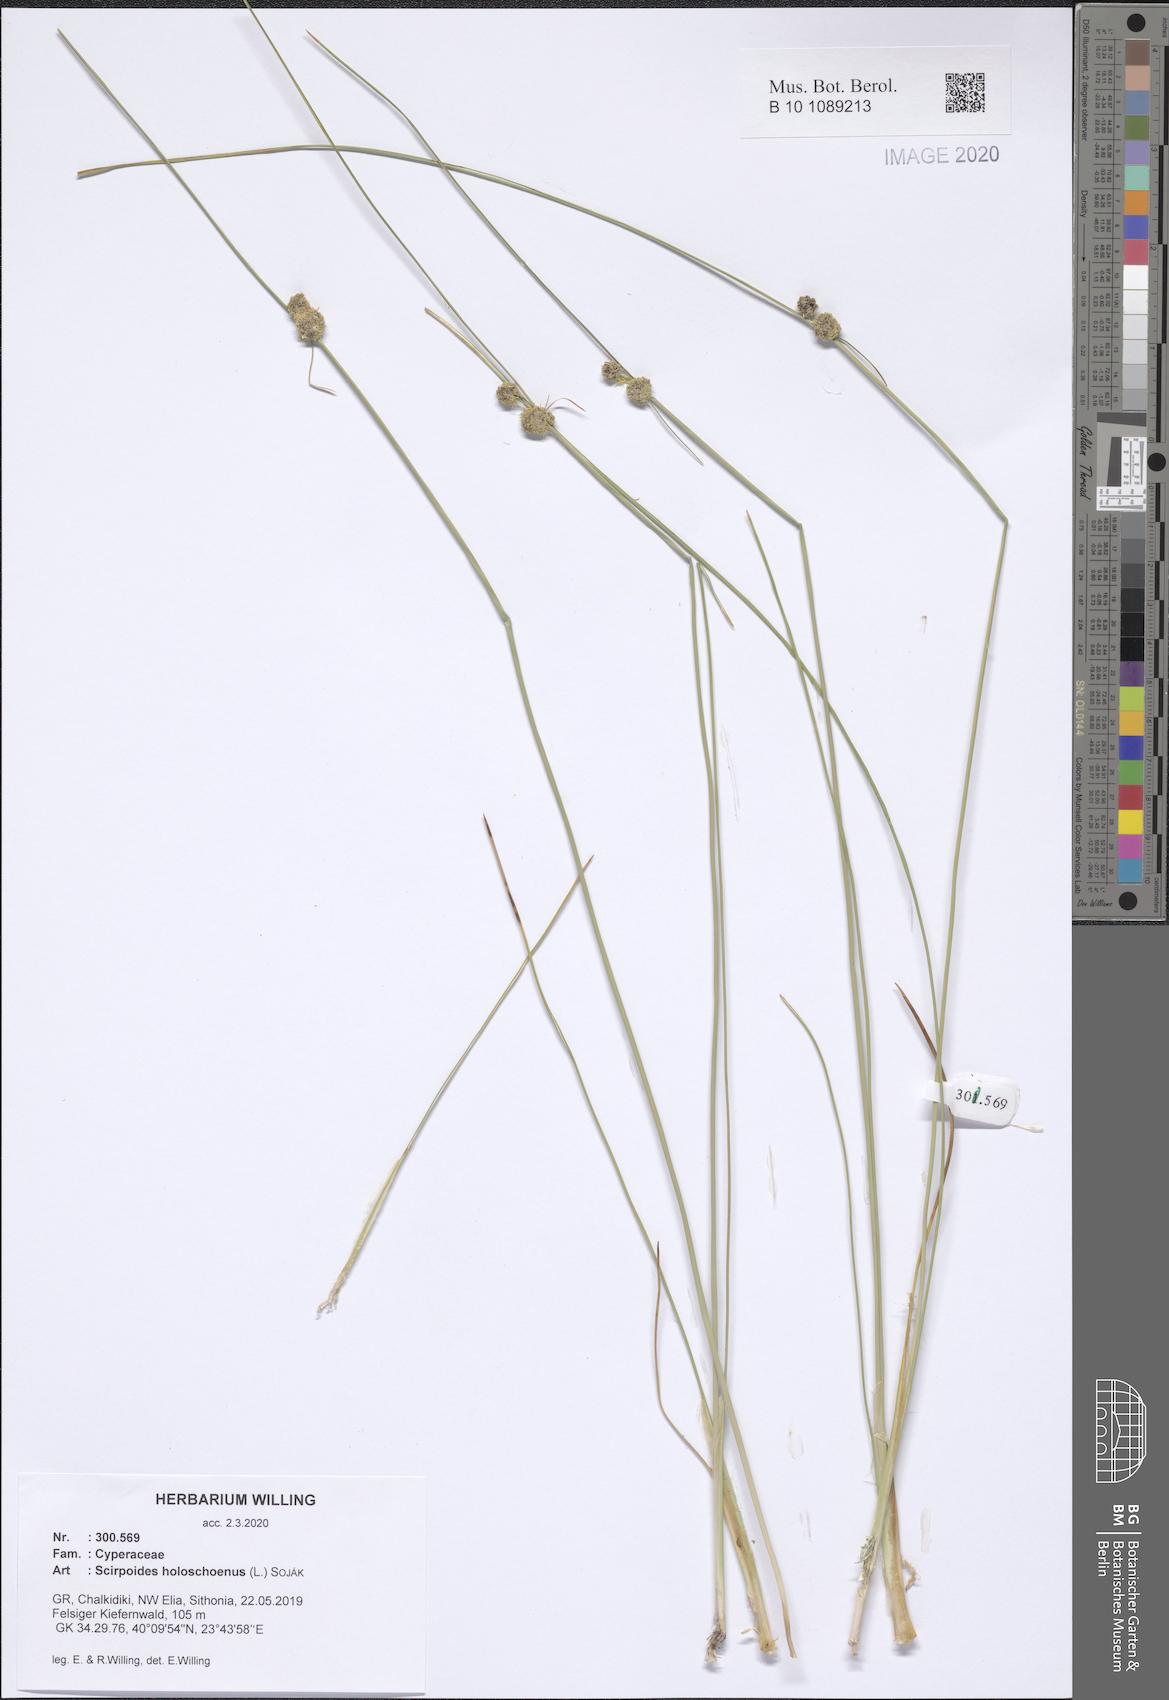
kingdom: Plantae
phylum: Tracheophyta
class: Liliopsida
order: Poales
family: Cyperaceae
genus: Scirpoides
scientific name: Scirpoides holoschoenus
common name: Round-headed club-rush
